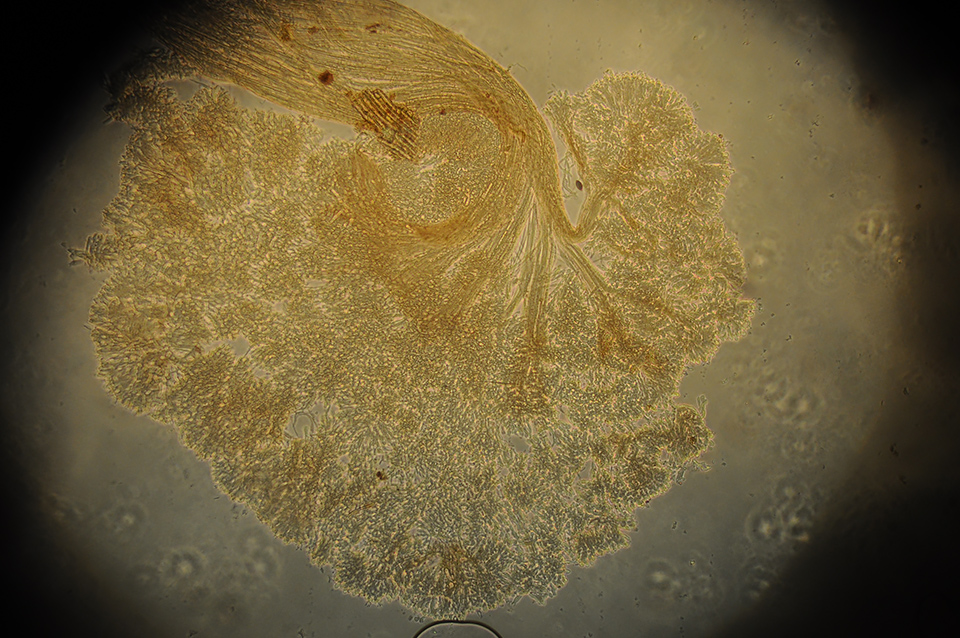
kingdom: Fungi
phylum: Basidiomycota
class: Agaricomycetes
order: Agaricales
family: Typhulaceae
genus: Typhula
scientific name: Typhula brunneola
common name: sømkølle
